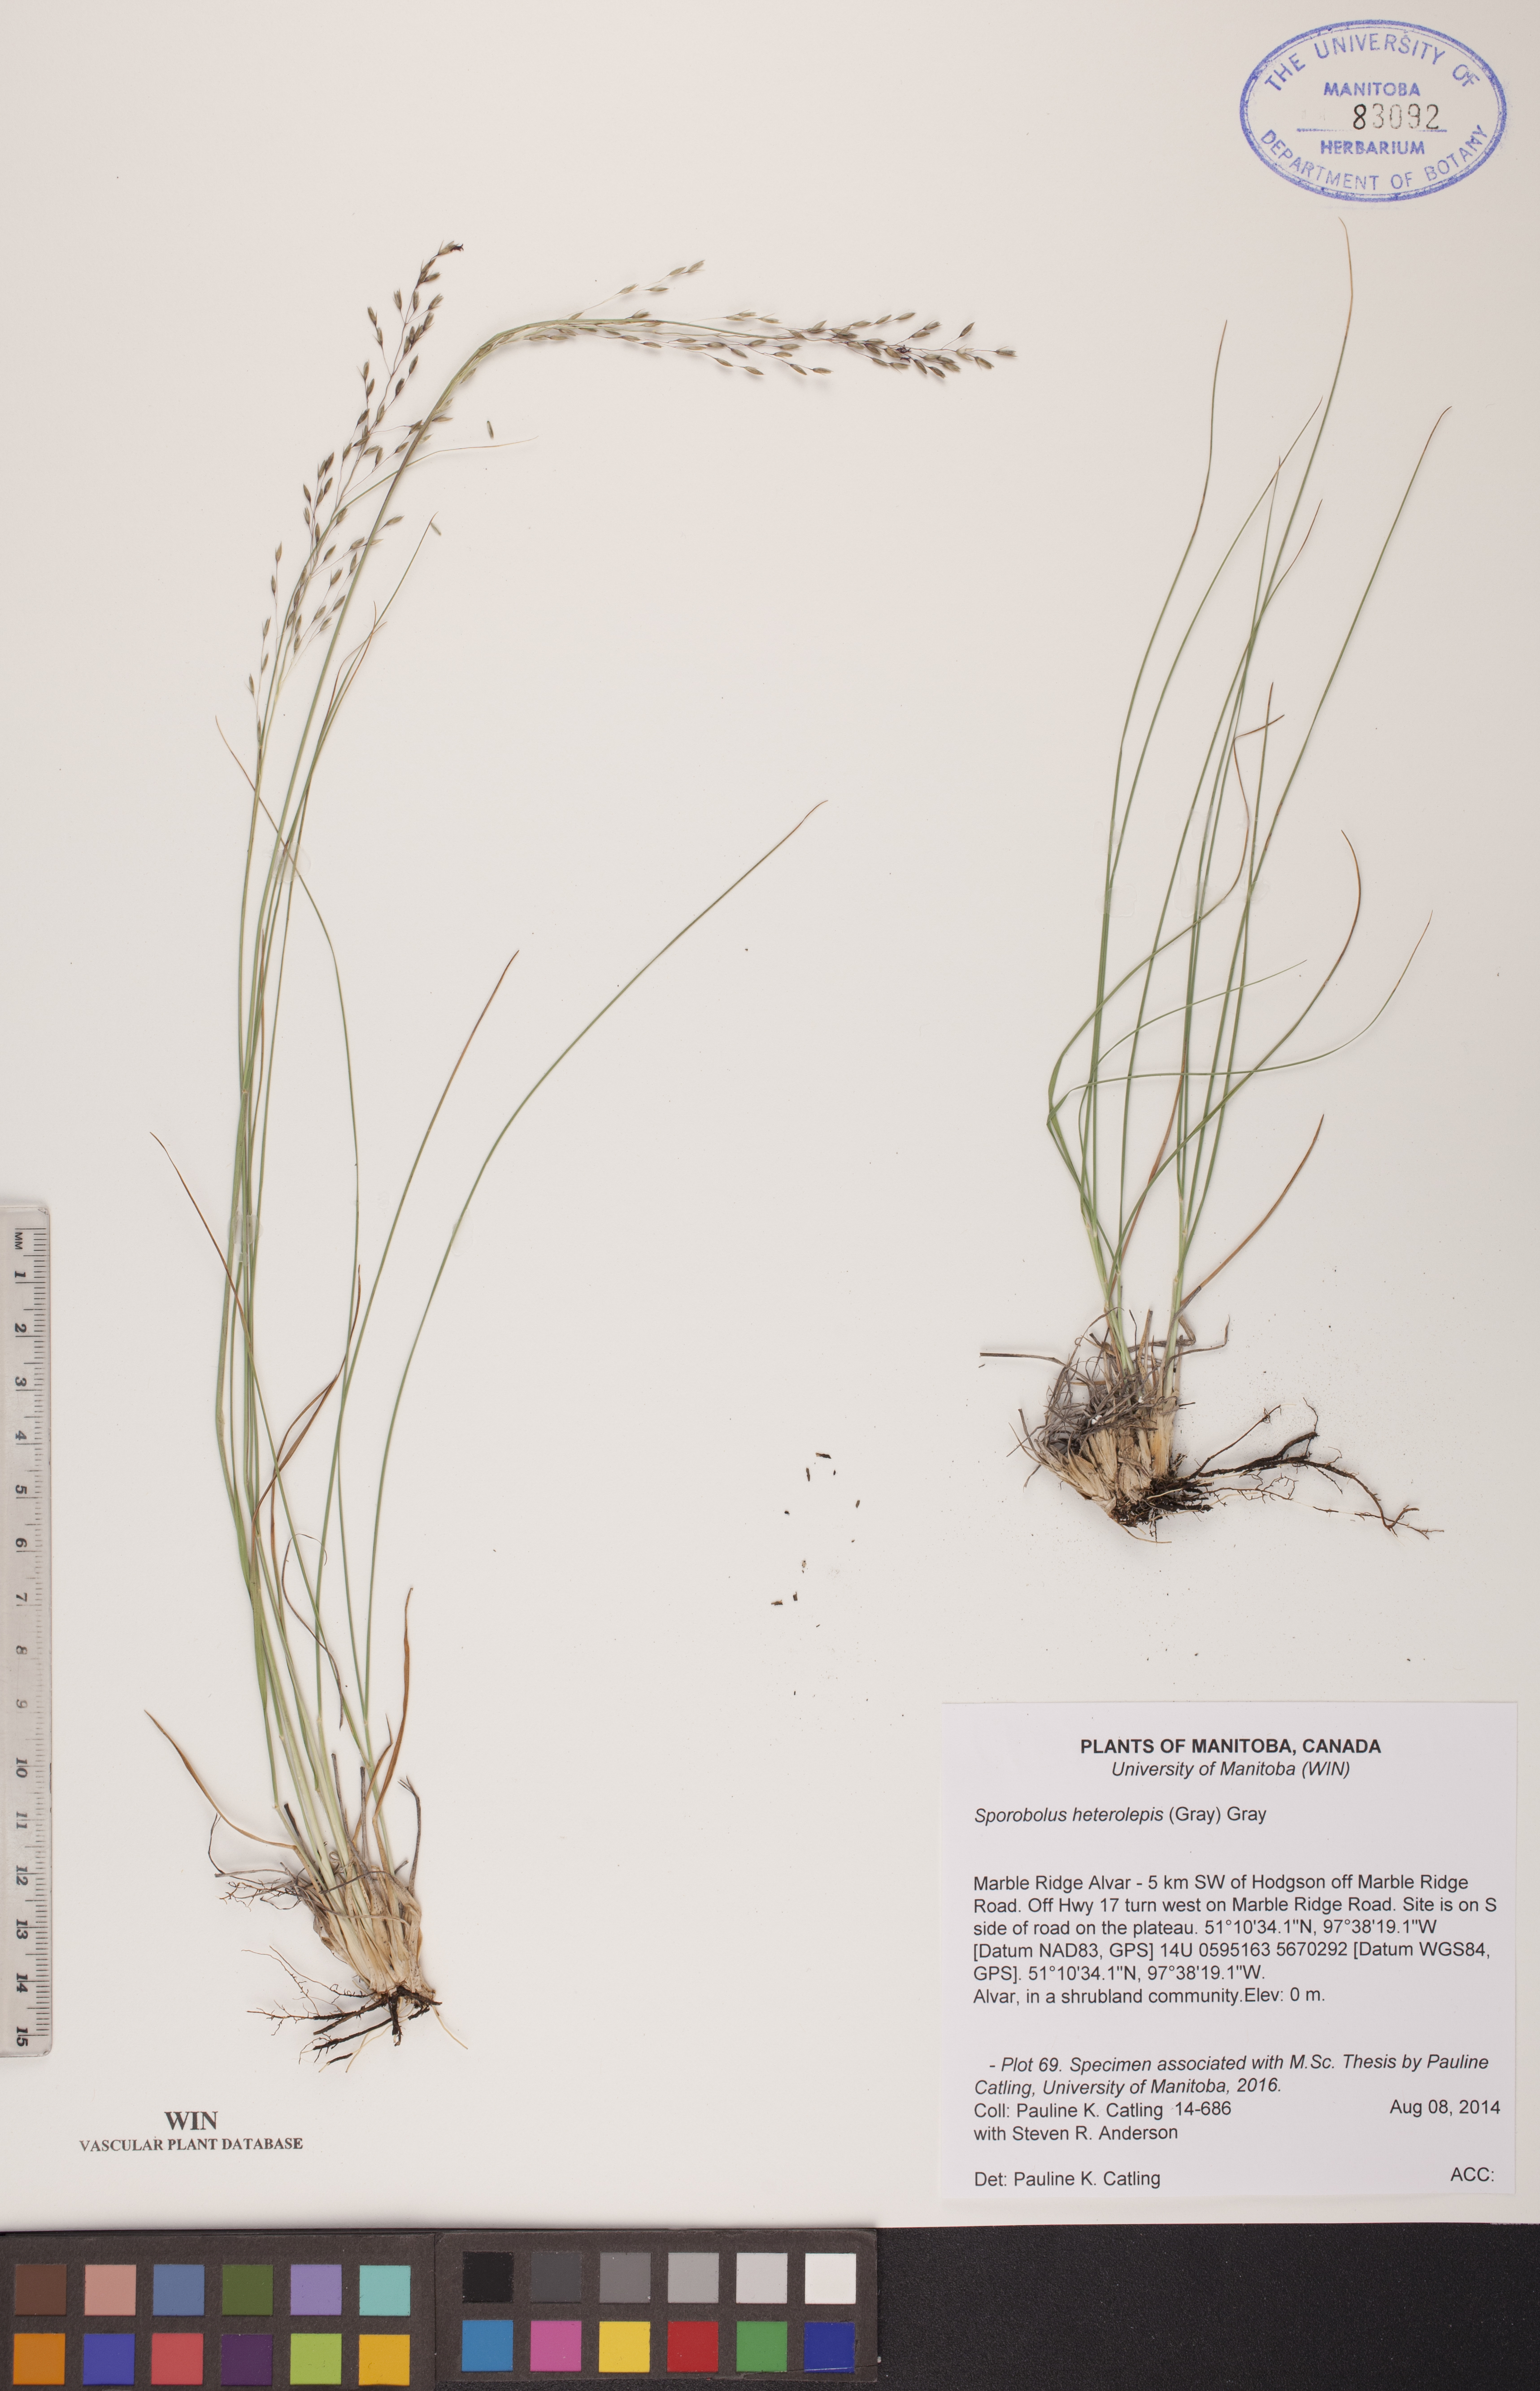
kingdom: Plantae
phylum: Tracheophyta
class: Liliopsida
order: Poales
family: Poaceae
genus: Sporobolus
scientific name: Sporobolus heterolepis
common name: Prairie dropseed
